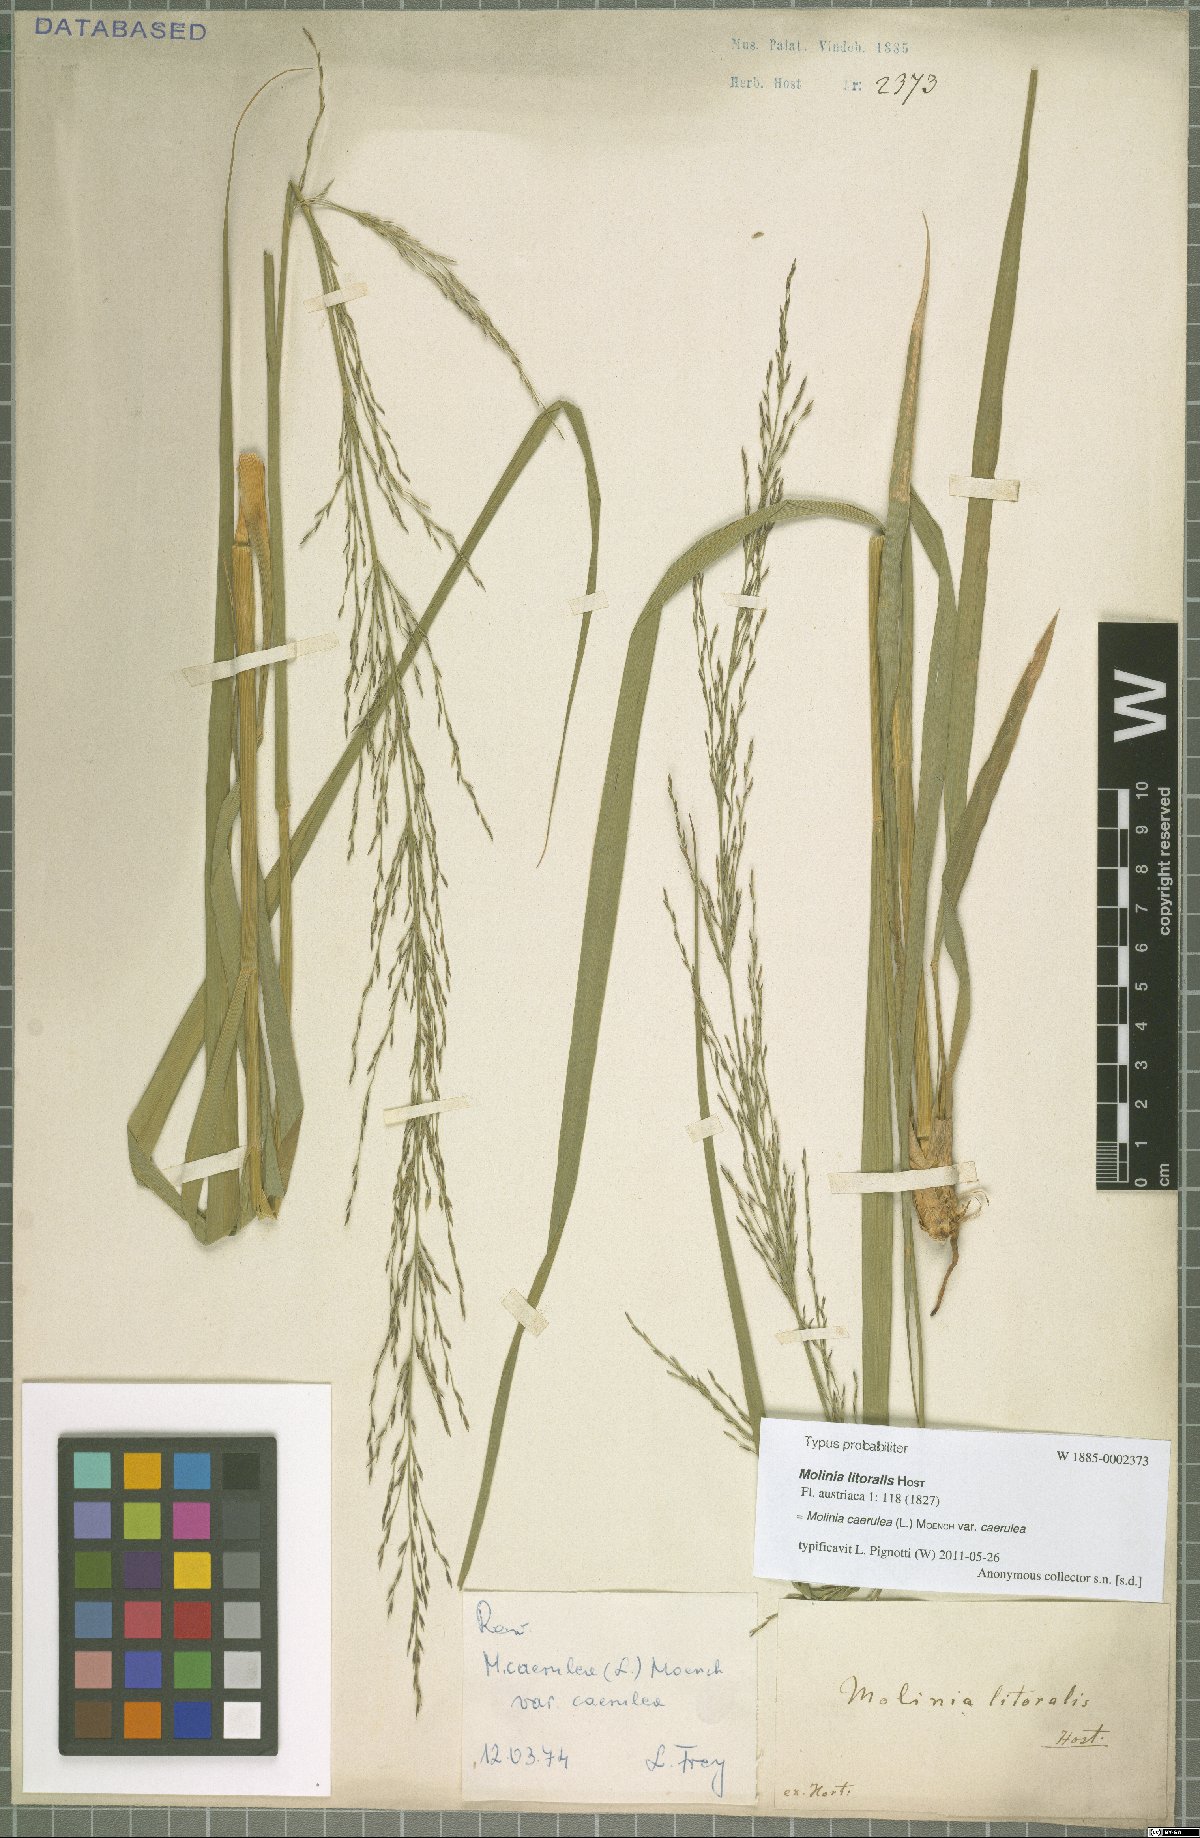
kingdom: Plantae
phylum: Tracheophyta
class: Liliopsida
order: Poales
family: Poaceae
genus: Molinia
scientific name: Molinia caerulea
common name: Purple moor-grass
